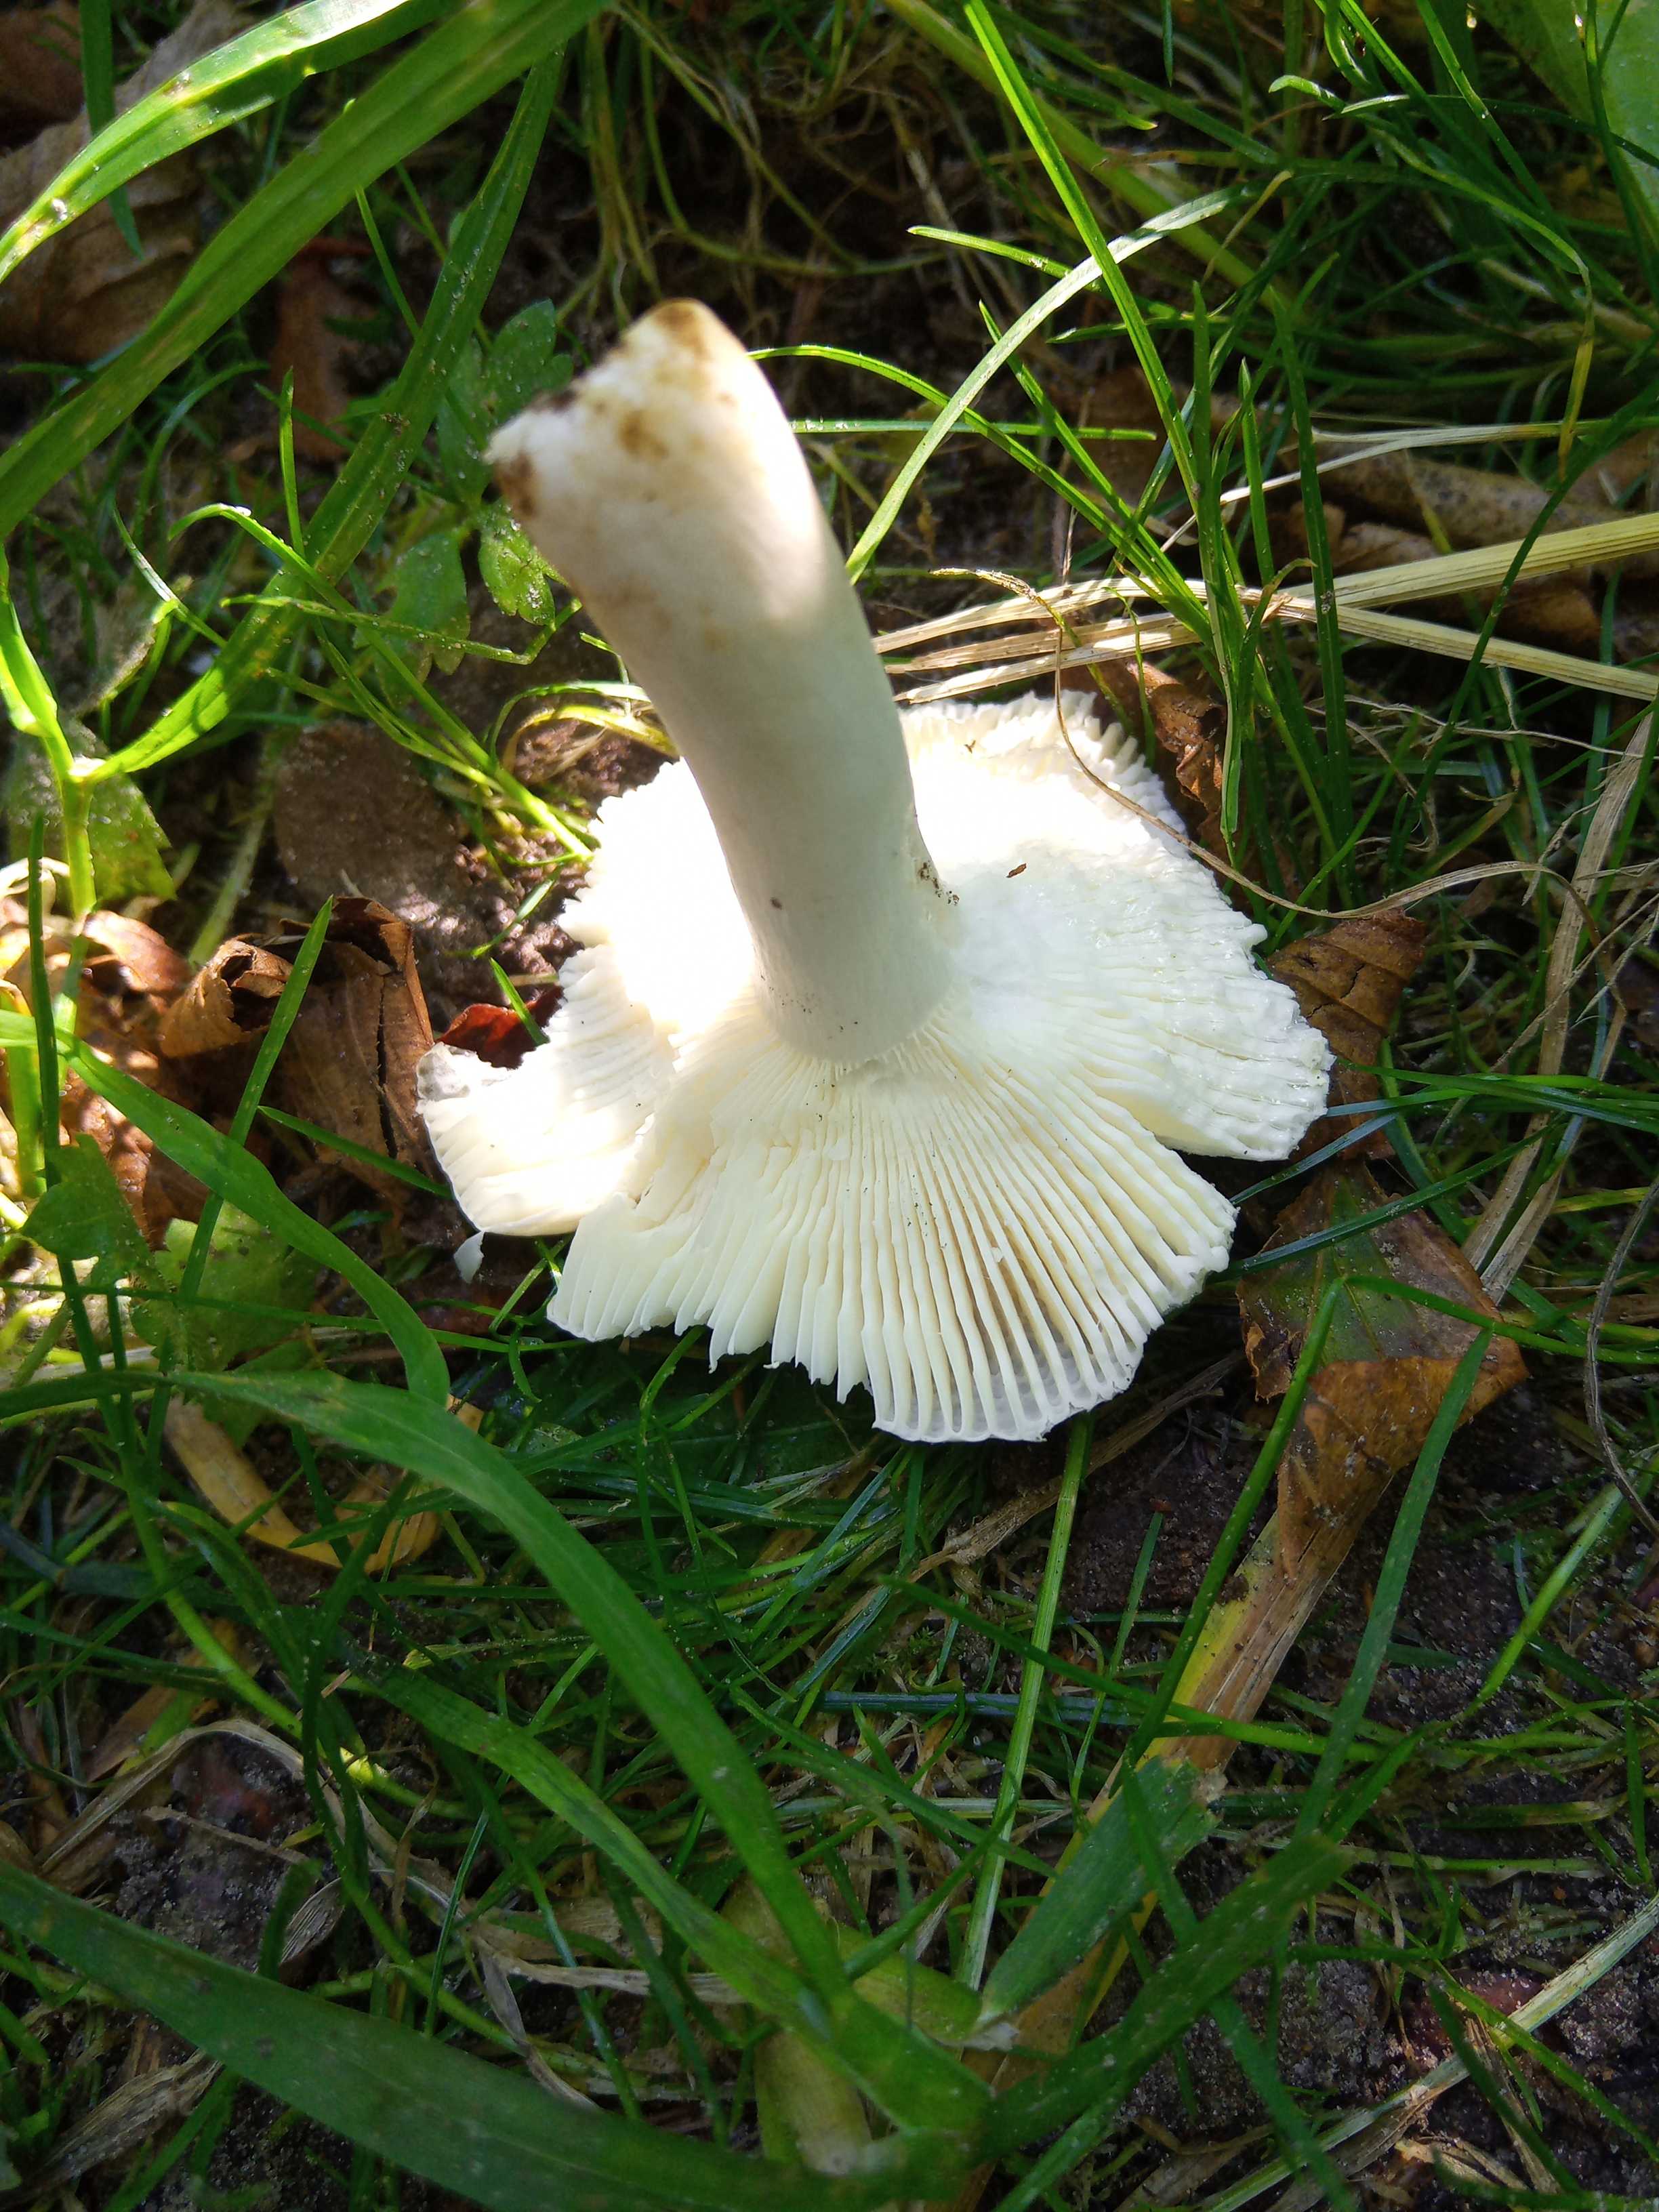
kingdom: Fungi
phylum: Basidiomycota
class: Agaricomycetes
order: Russulales
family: Russulaceae
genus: Russula
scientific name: Russula parazurea
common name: blågrå skørhat
